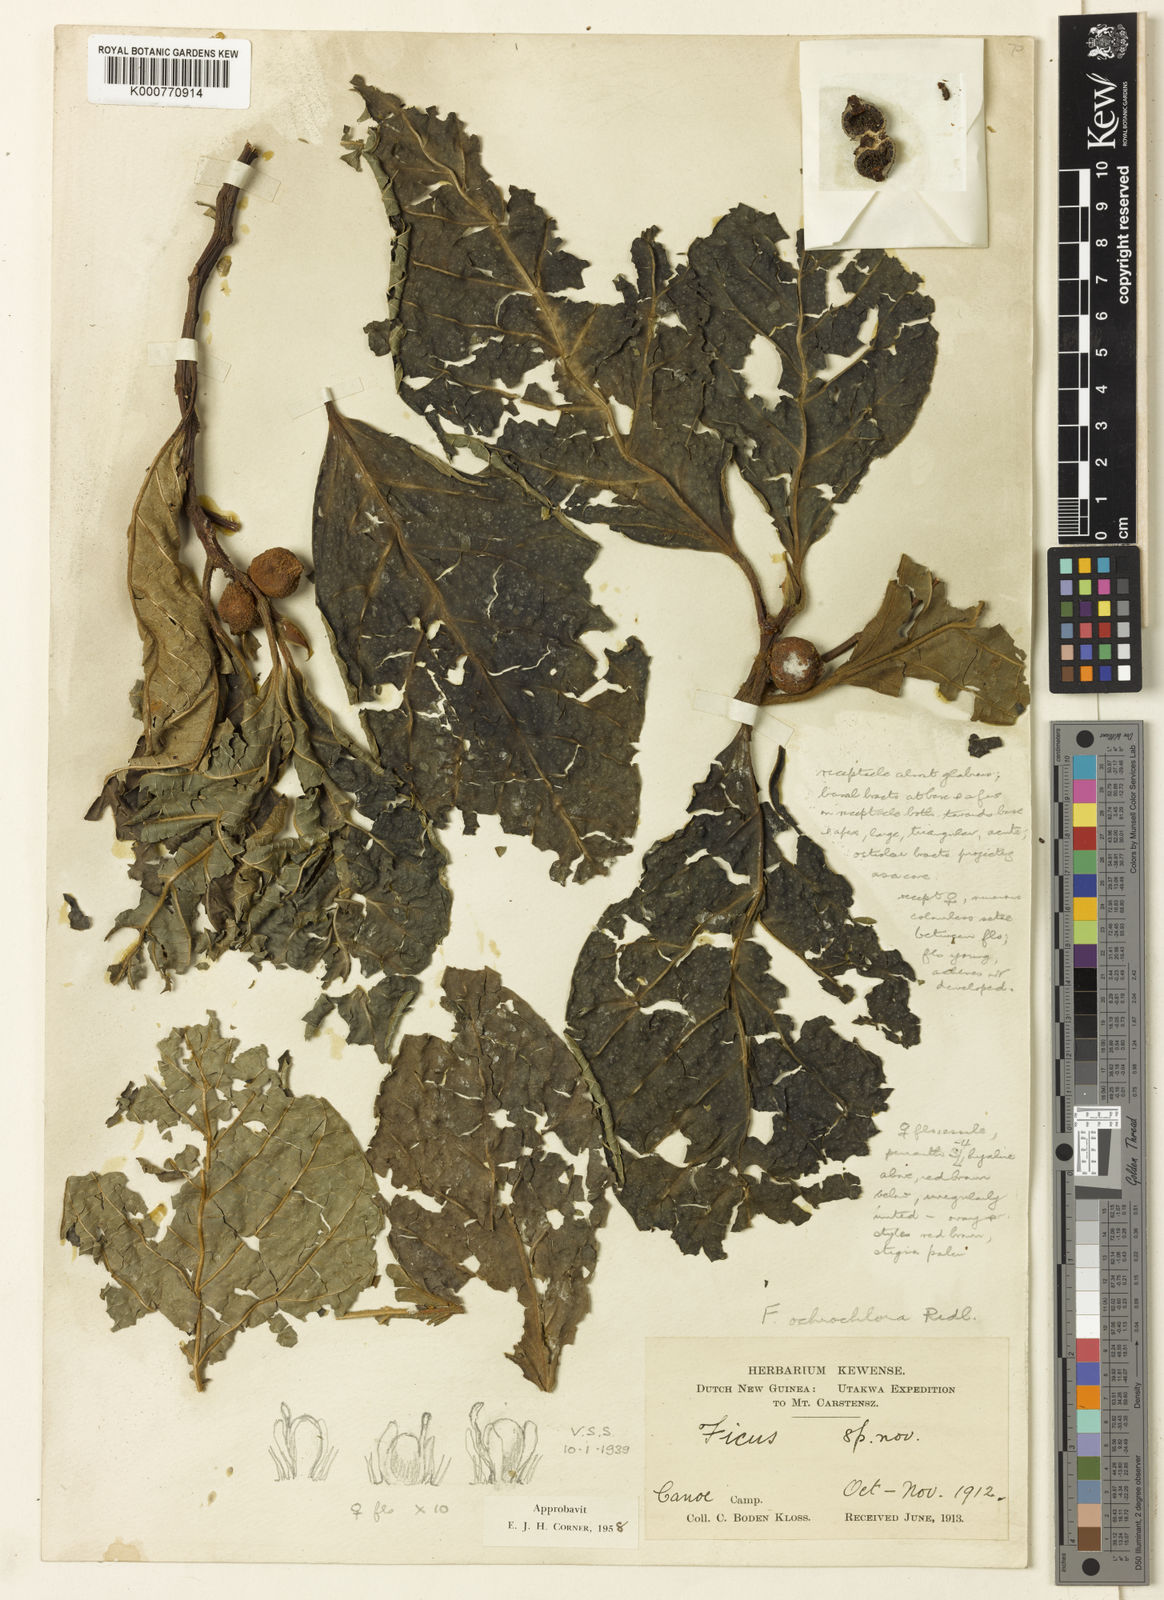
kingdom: Plantae
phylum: Tracheophyta
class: Magnoliopsida
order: Rosales
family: Moraceae
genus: Ficus
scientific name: Ficus mollior
